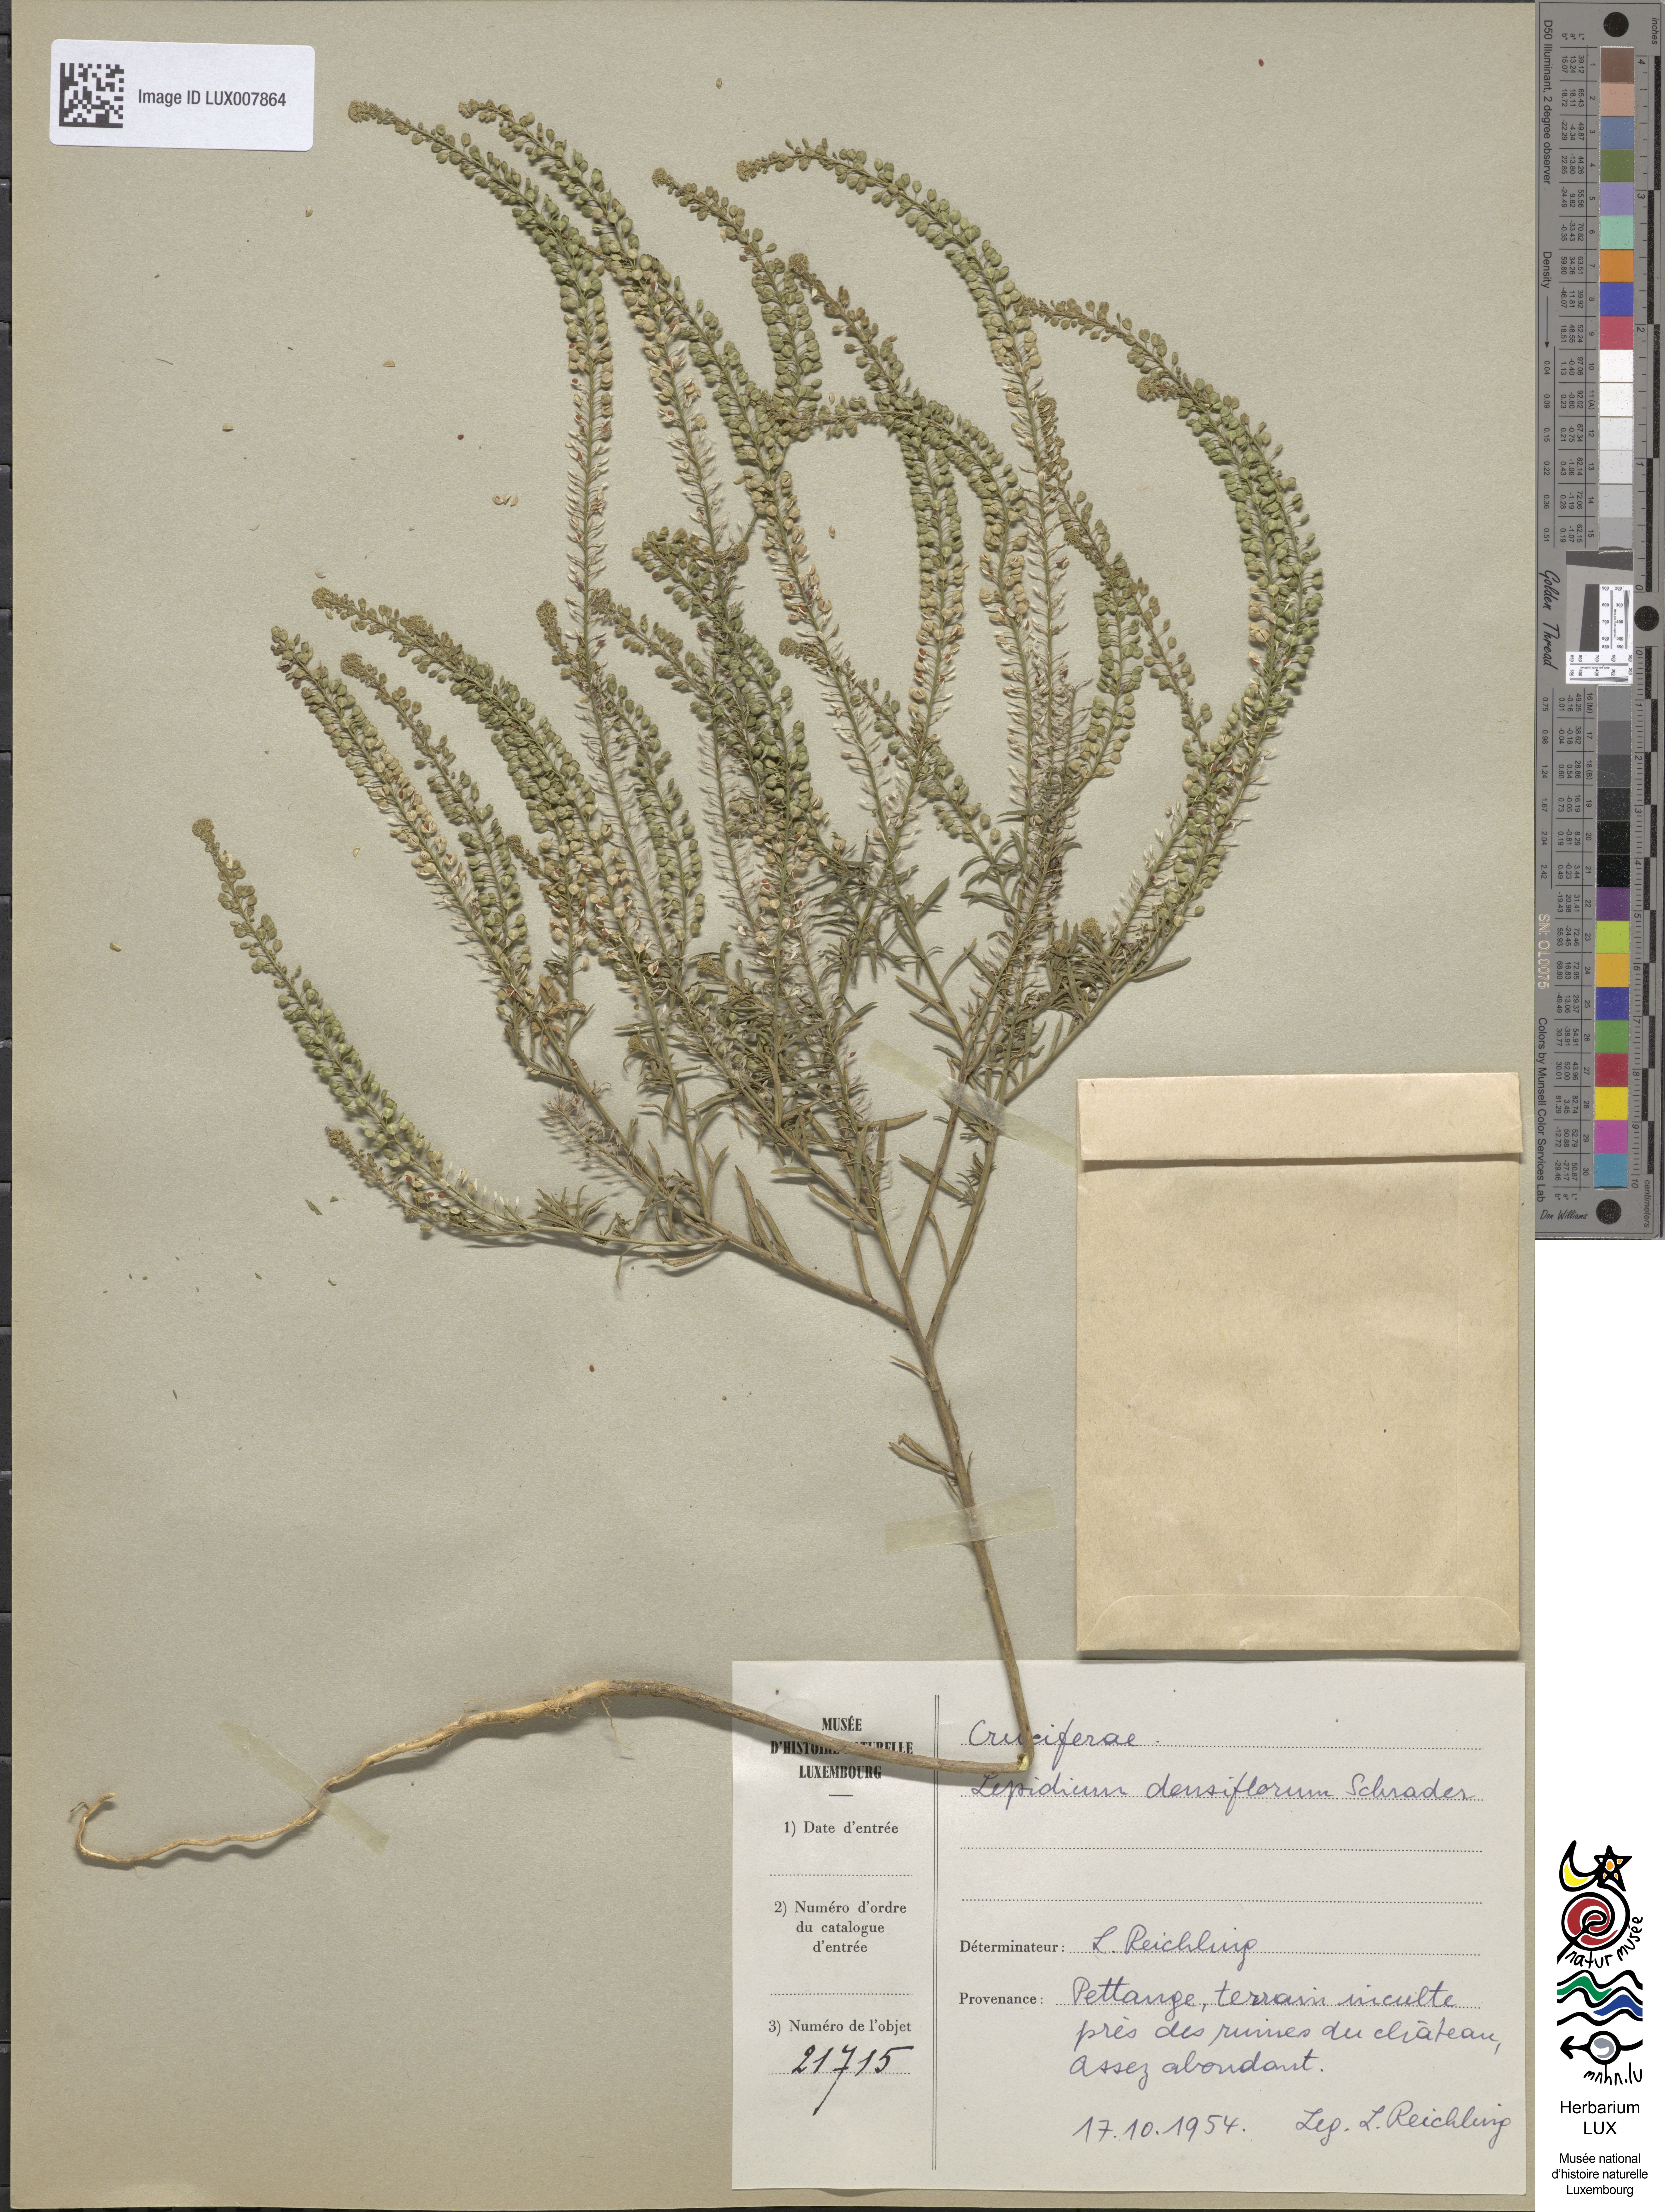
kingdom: Plantae
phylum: Tracheophyta
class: Magnoliopsida
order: Brassicales
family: Brassicaceae
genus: Lepidium
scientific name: Lepidium densiflorum
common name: Miner's pepperwort
